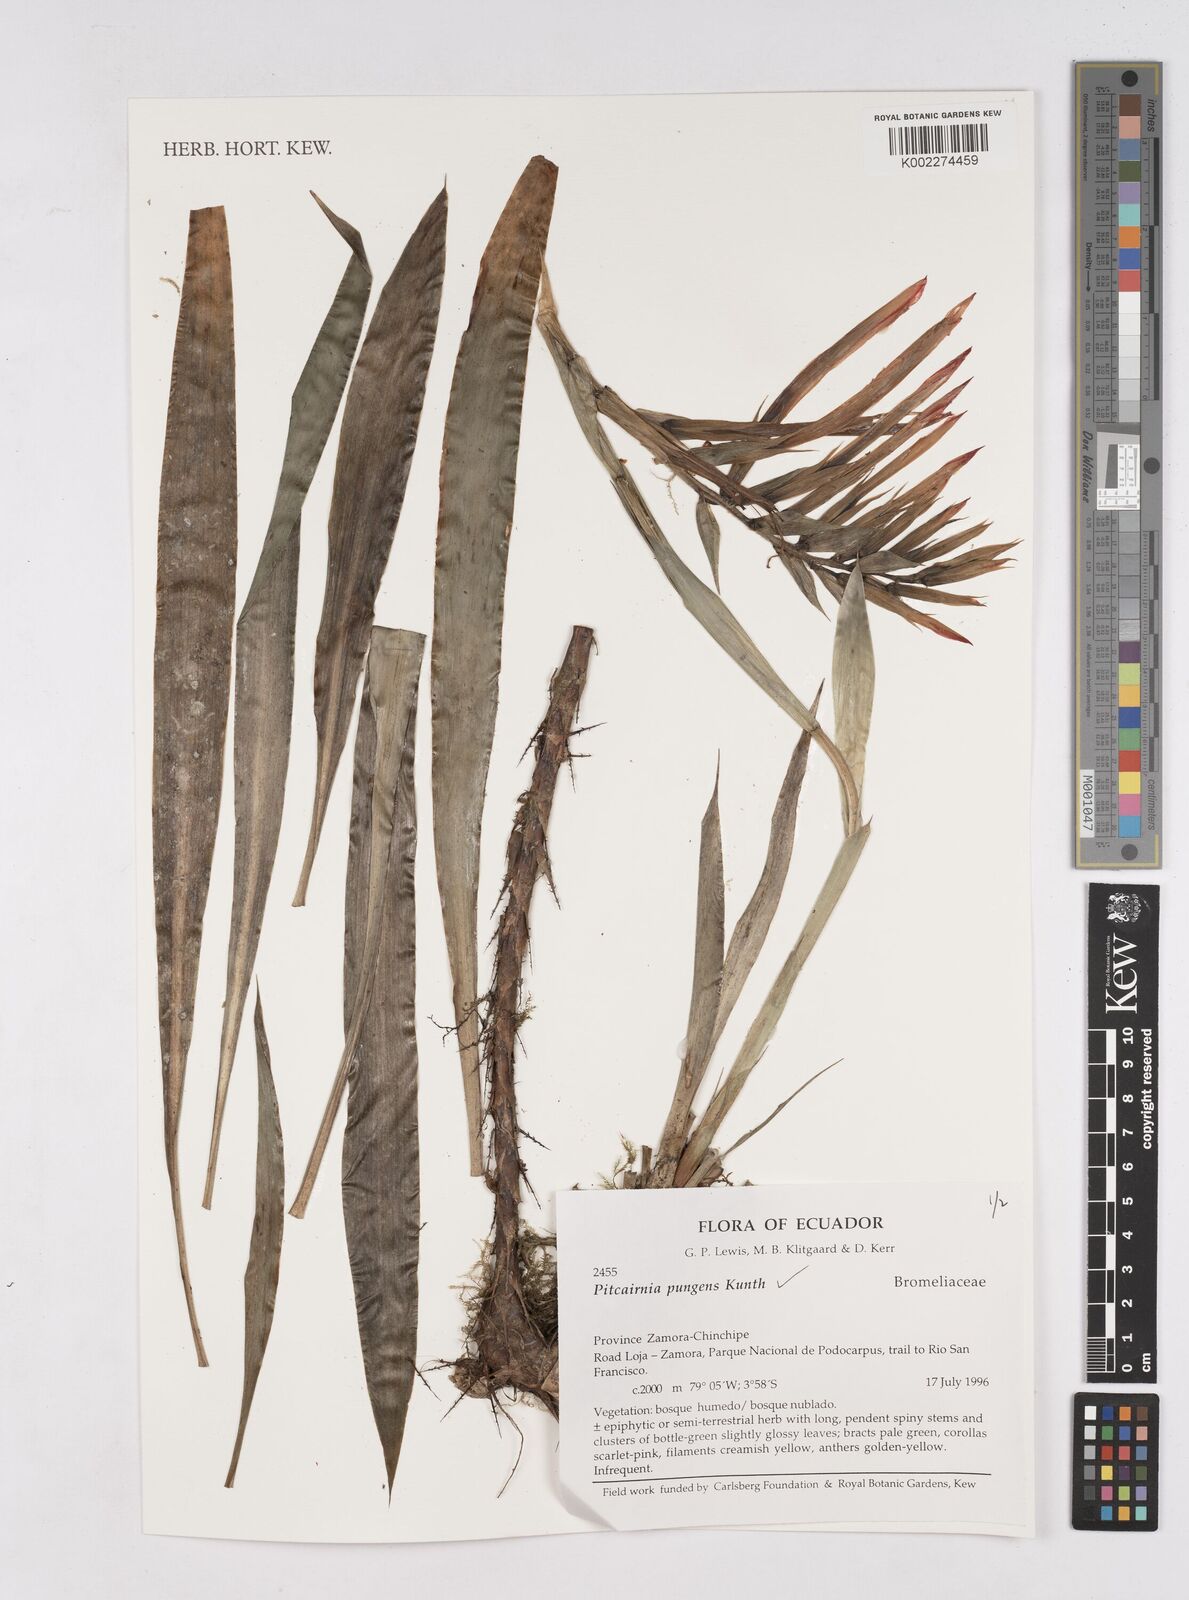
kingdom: Plantae
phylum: Tracheophyta
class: Liliopsida
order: Poales
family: Bromeliaceae
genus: Pitcairnia
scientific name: Pitcairnia pungens
